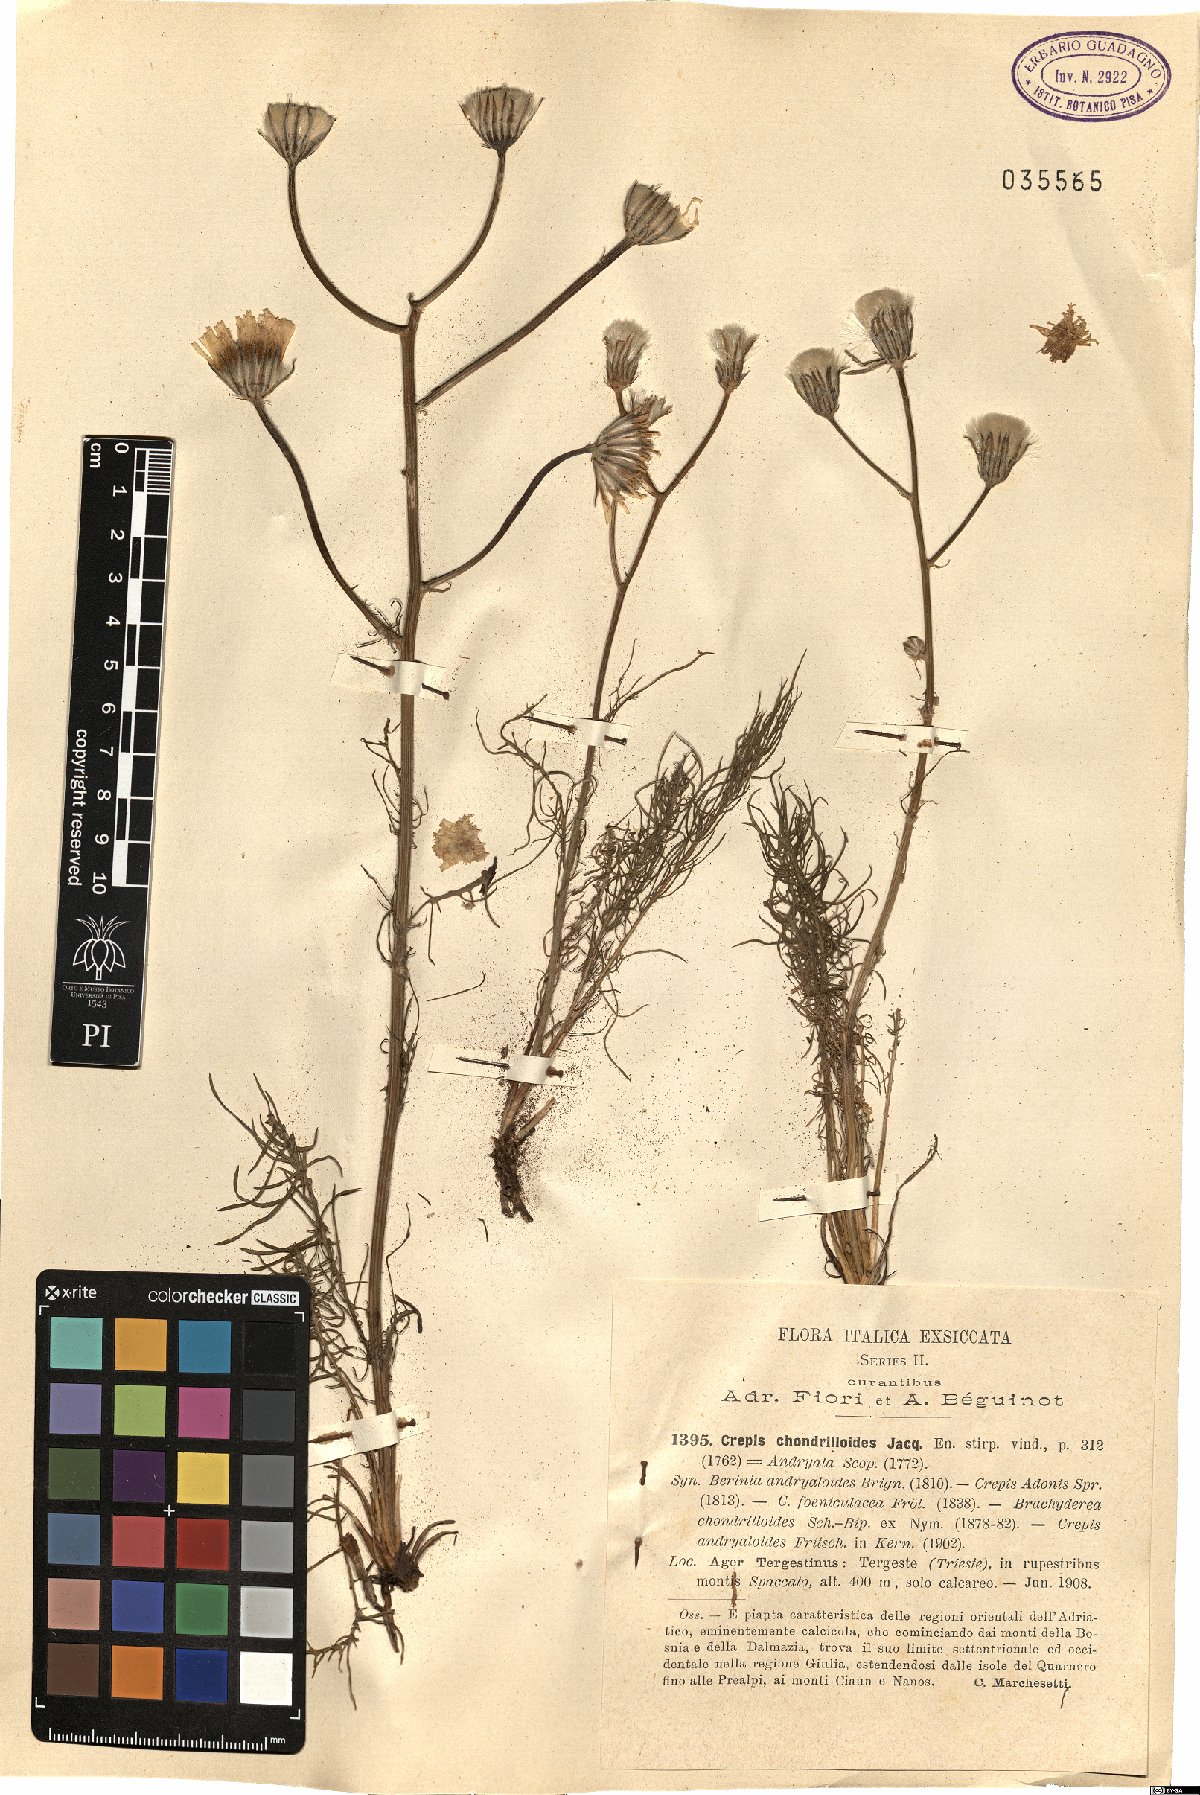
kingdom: Plantae
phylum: Tracheophyta
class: Magnoliopsida
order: Asterales
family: Asteraceae
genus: Crepis
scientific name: Crepis chondrilloides
